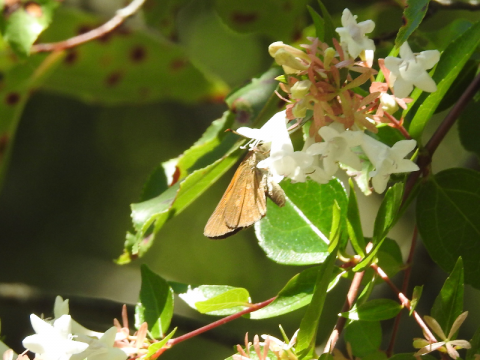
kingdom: Animalia
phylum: Arthropoda
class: Insecta
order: Lepidoptera
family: Hesperiidae
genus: Poanes
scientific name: Poanes viator
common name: Broad-winged Skipper
